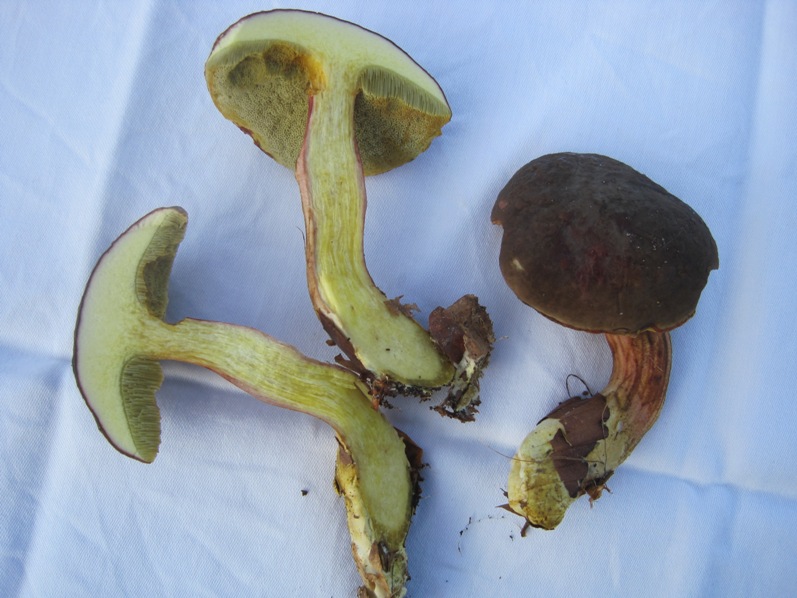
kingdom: Fungi
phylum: Basidiomycota
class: Agaricomycetes
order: Boletales
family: Boletaceae
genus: Xerocomellus
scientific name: Xerocomellus pruinatus
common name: dugget rørhat
